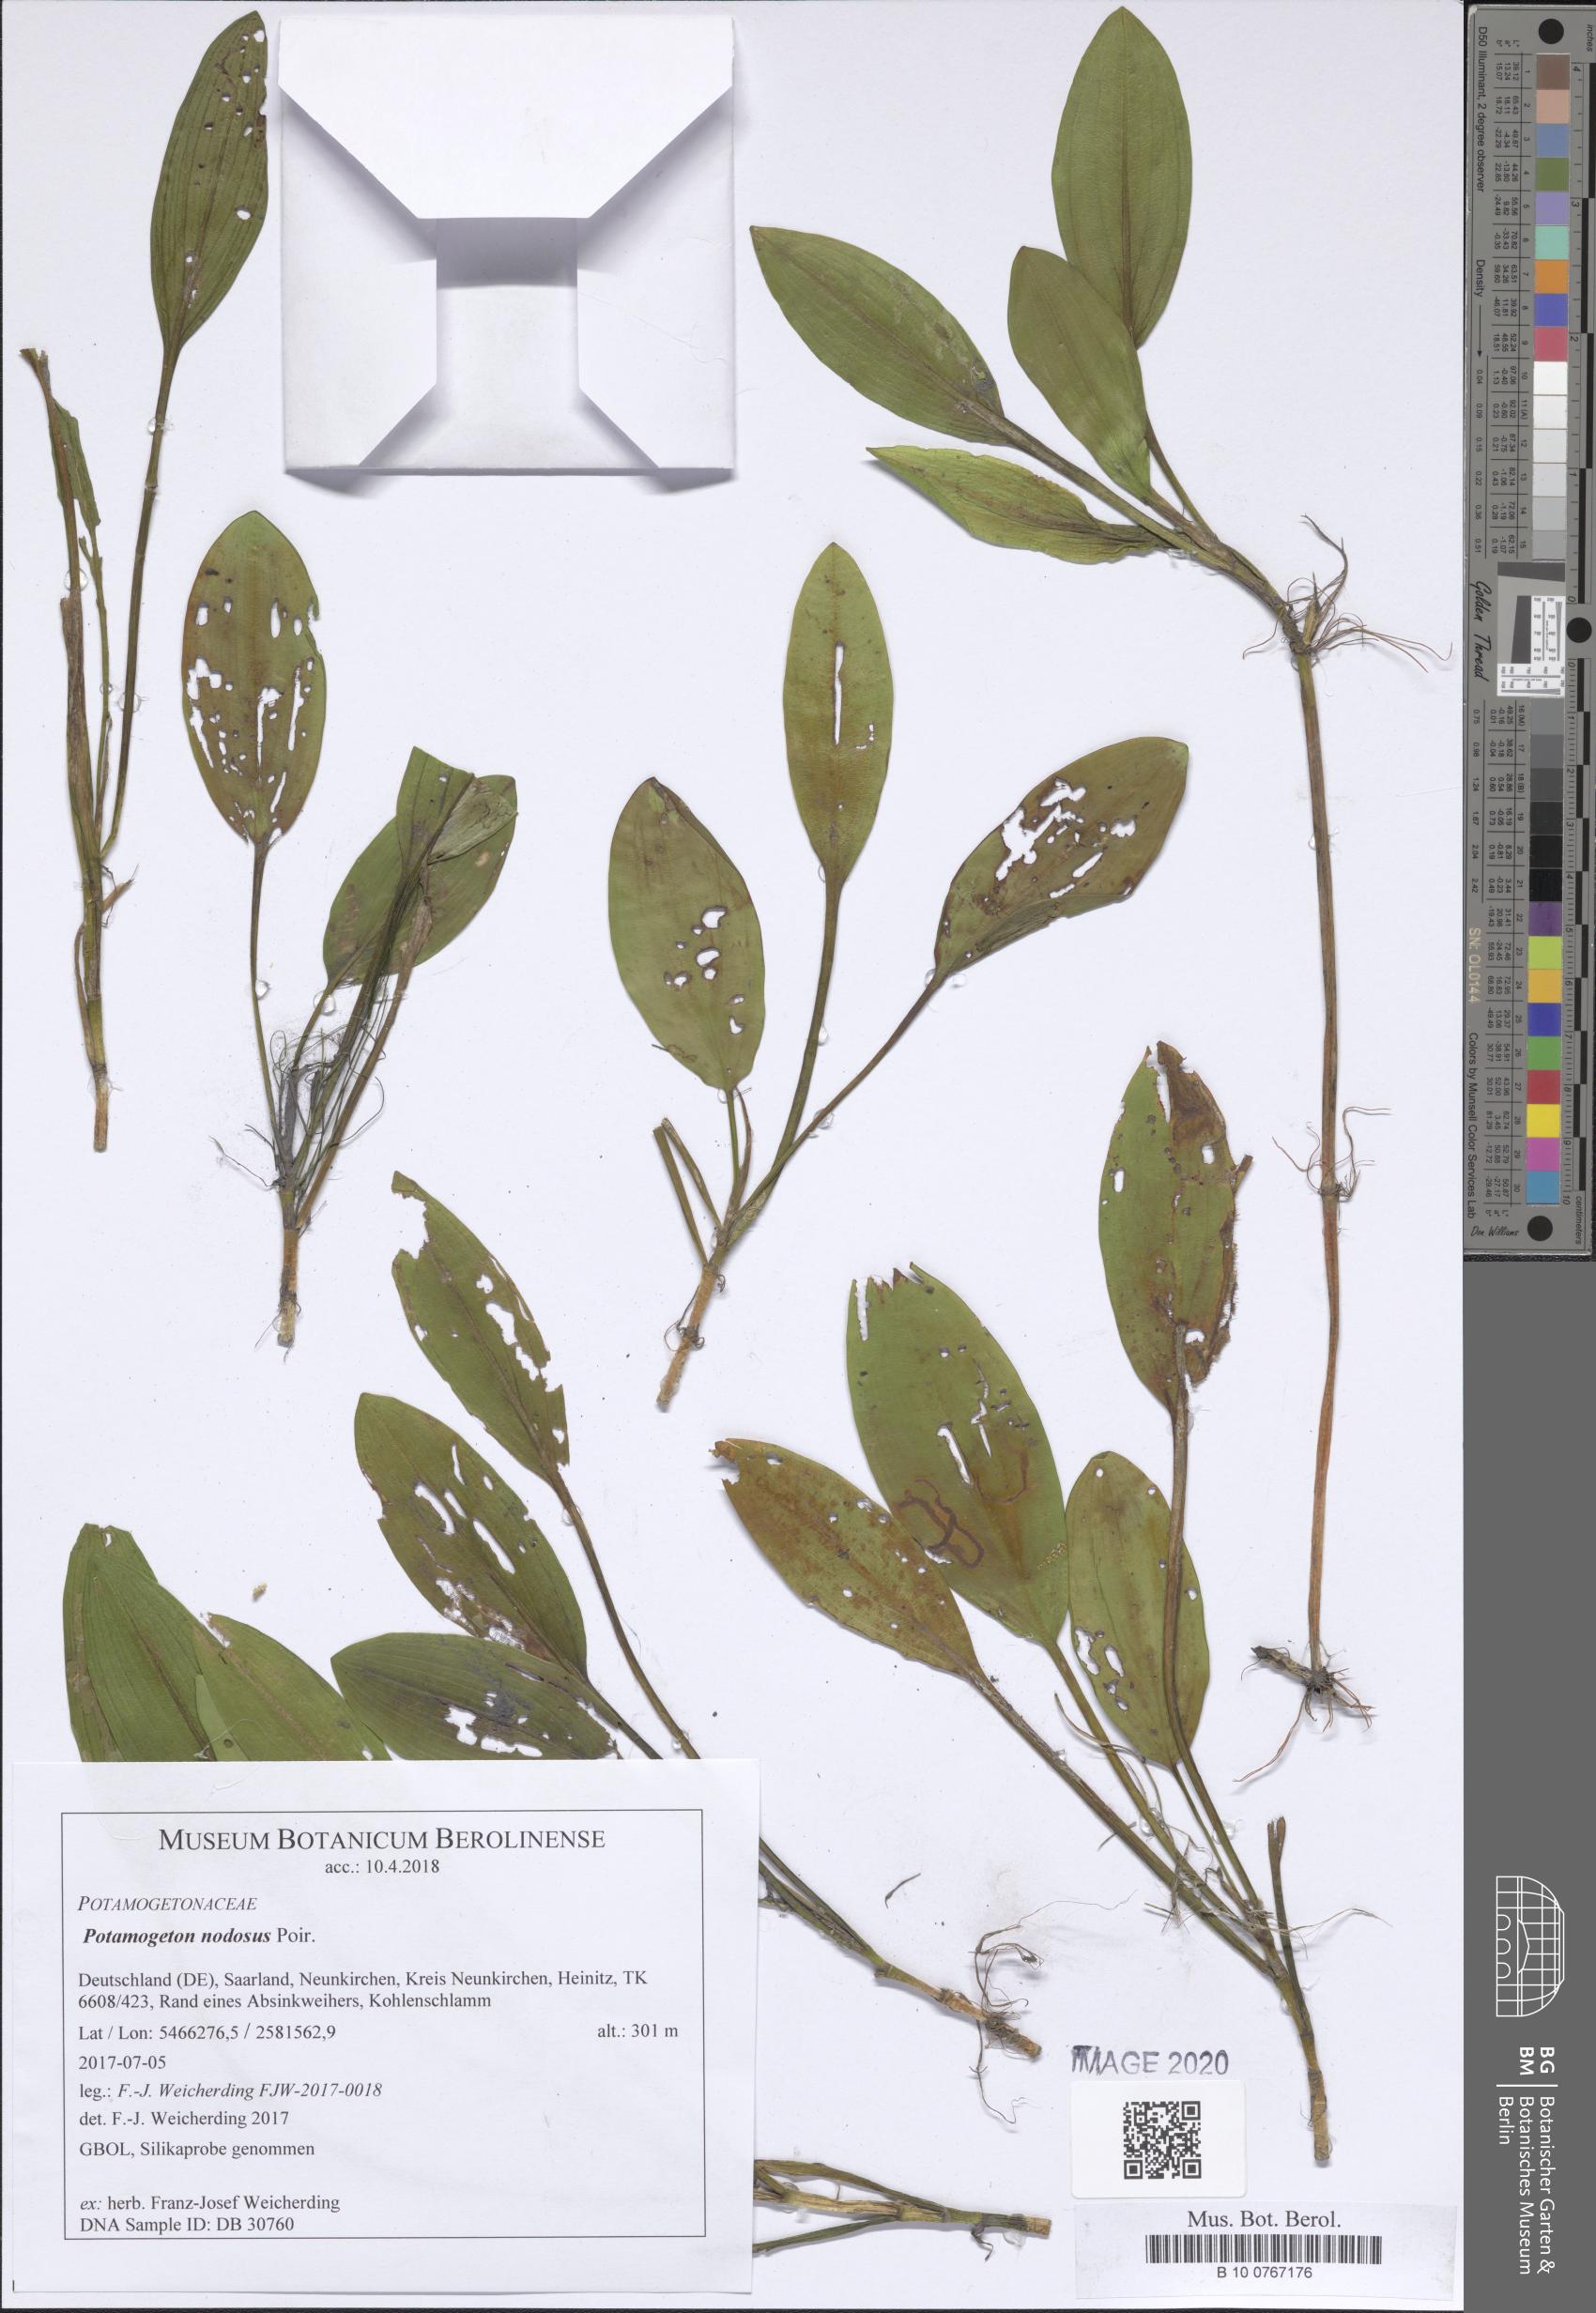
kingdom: Plantae
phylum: Tracheophyta
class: Liliopsida
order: Alismatales
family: Potamogetonaceae
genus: Potamogeton
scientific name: Potamogeton nodosus
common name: Loddon pondweed
